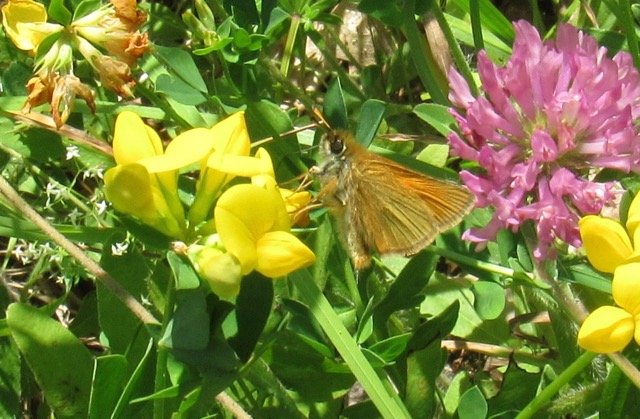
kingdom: Animalia
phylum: Arthropoda
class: Insecta
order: Lepidoptera
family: Hesperiidae
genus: Thymelicus
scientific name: Thymelicus lineola
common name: European Skipper
